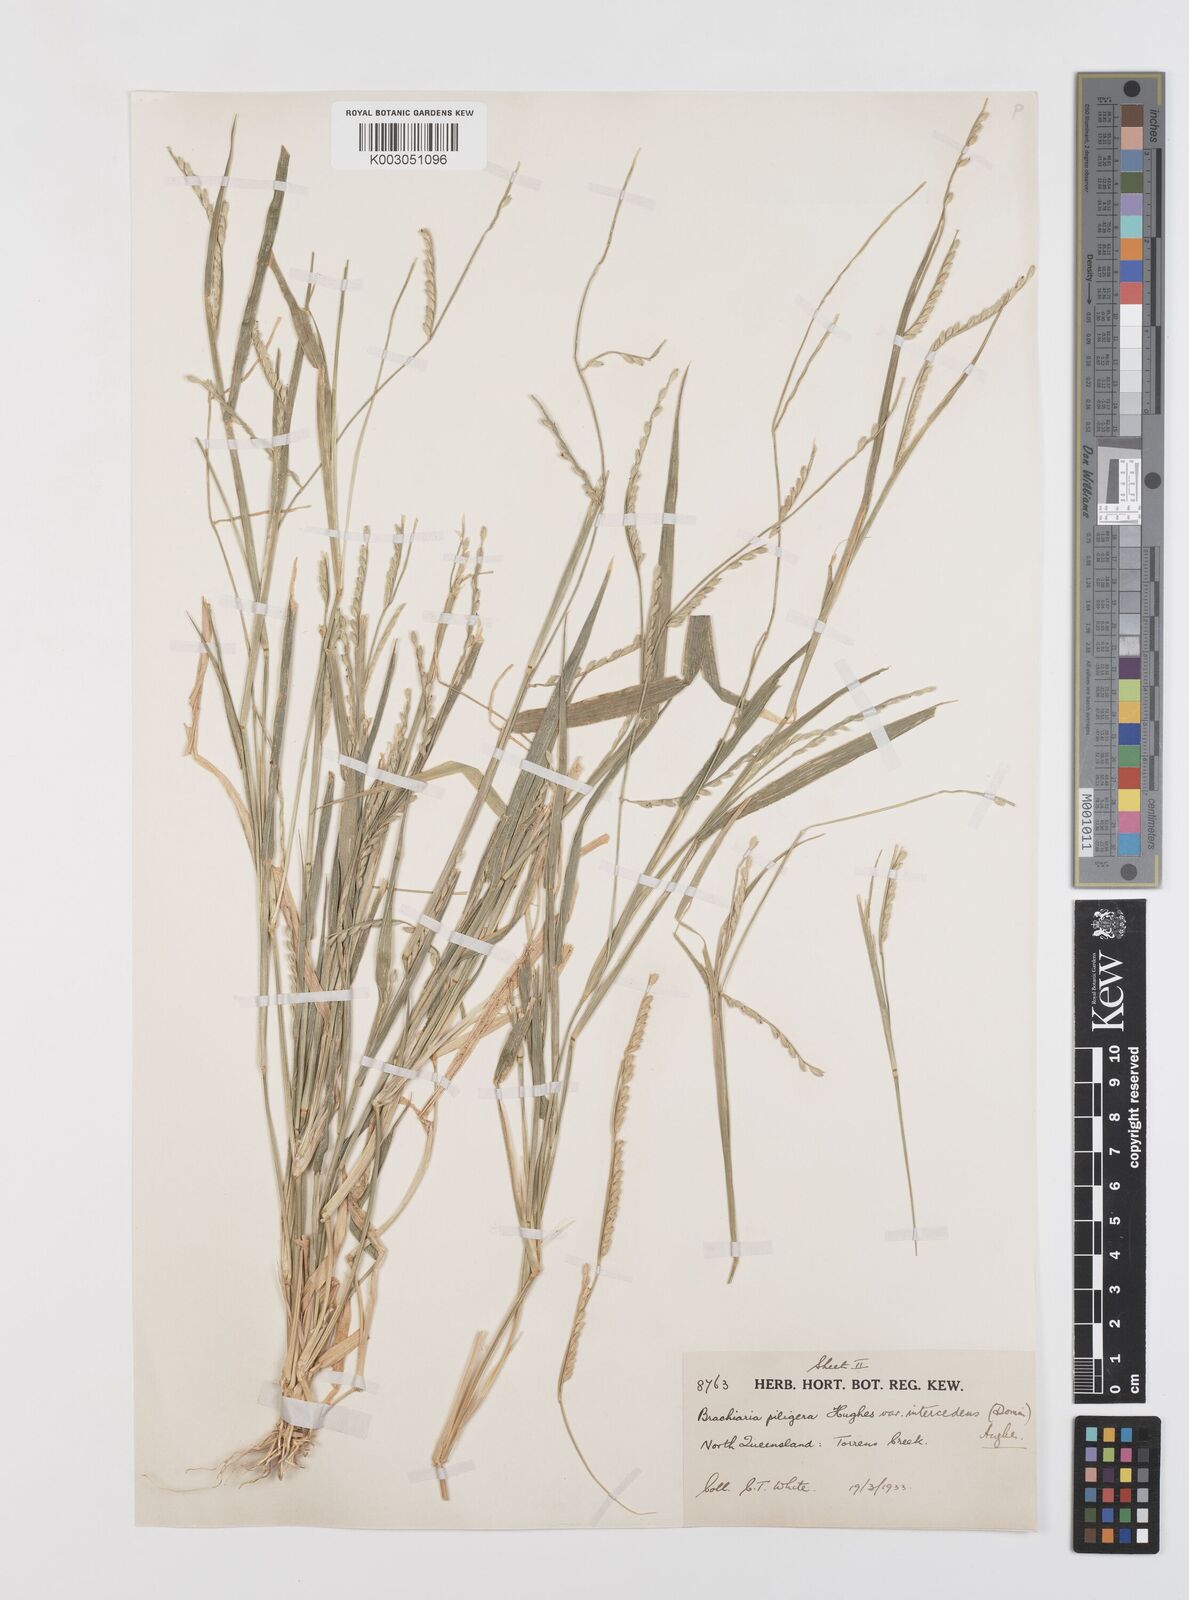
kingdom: Plantae
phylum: Tracheophyta
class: Liliopsida
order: Poales
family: Poaceae
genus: Urochloa
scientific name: Urochloa piligera
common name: Wattle signalgrass
